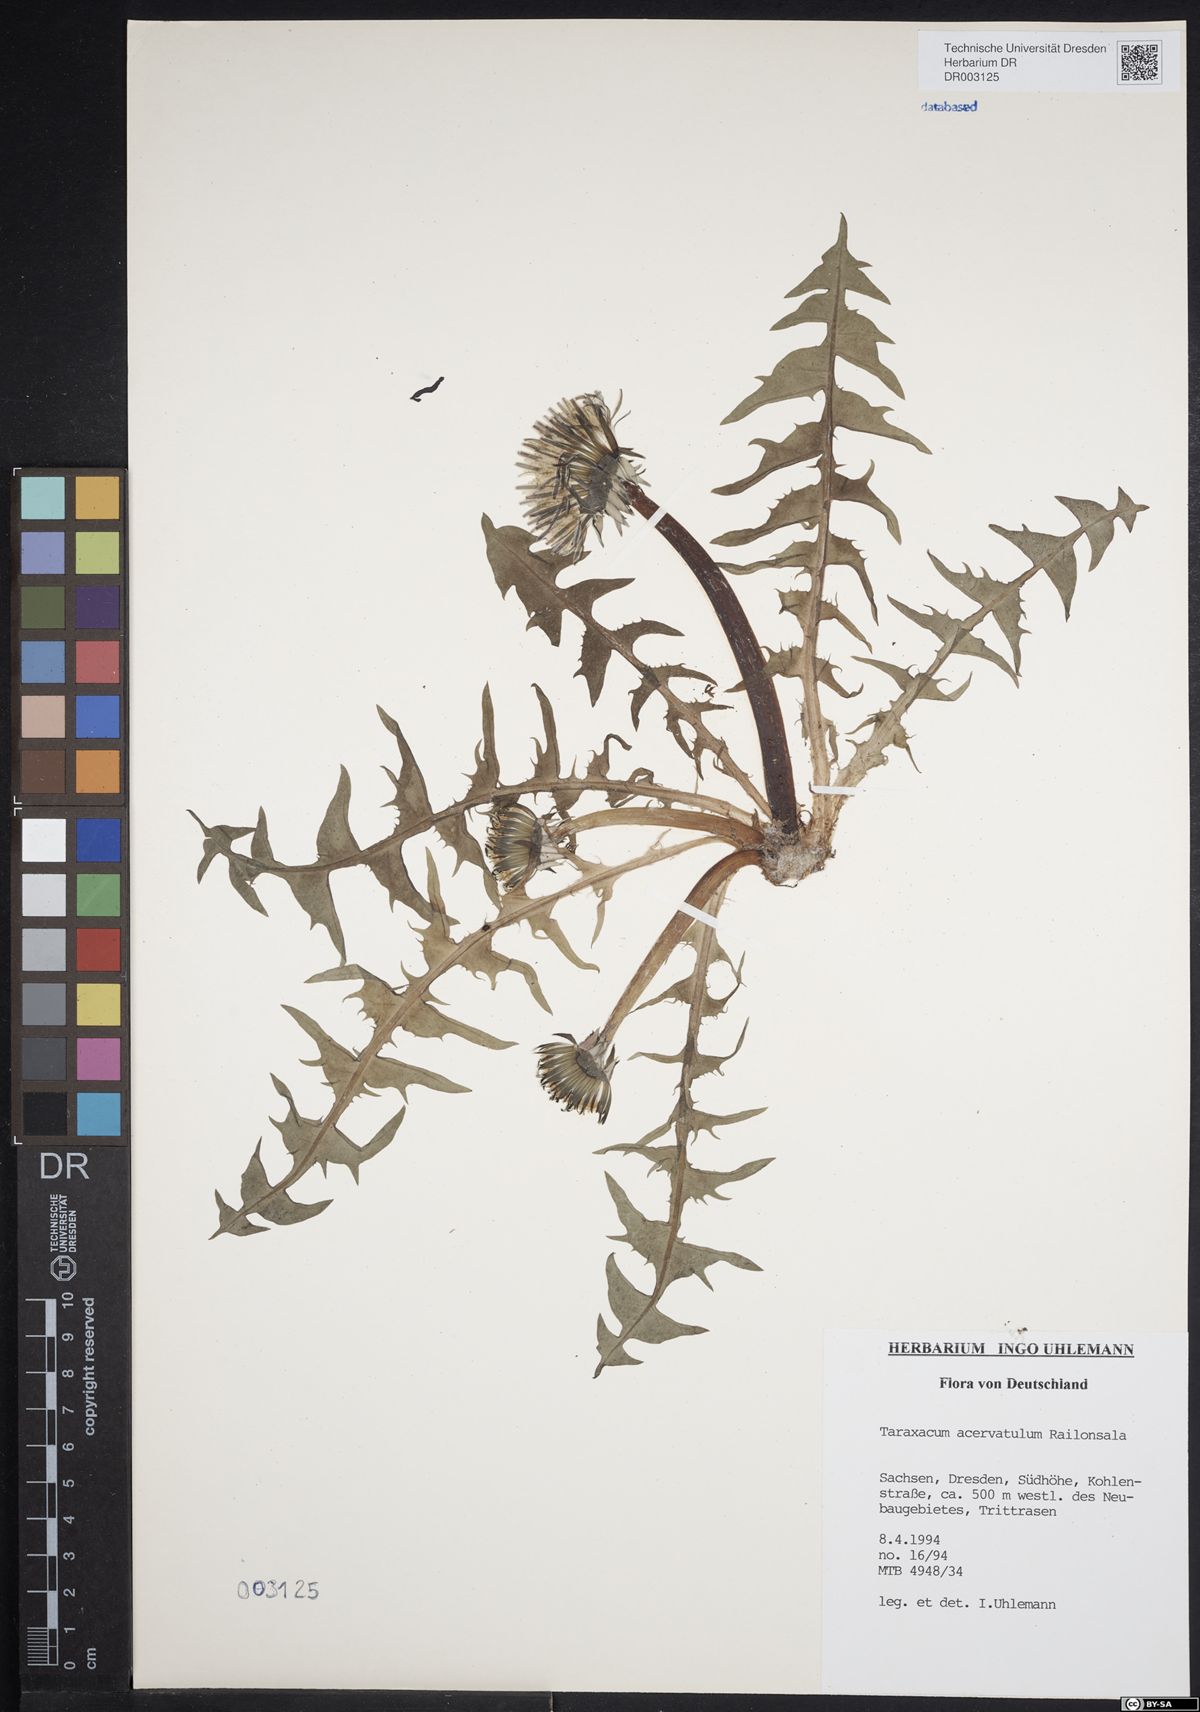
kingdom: Plantae
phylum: Tracheophyta
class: Magnoliopsida
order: Asterales
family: Asteraceae
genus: Taraxacum
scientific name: Taraxacum acervatulum
